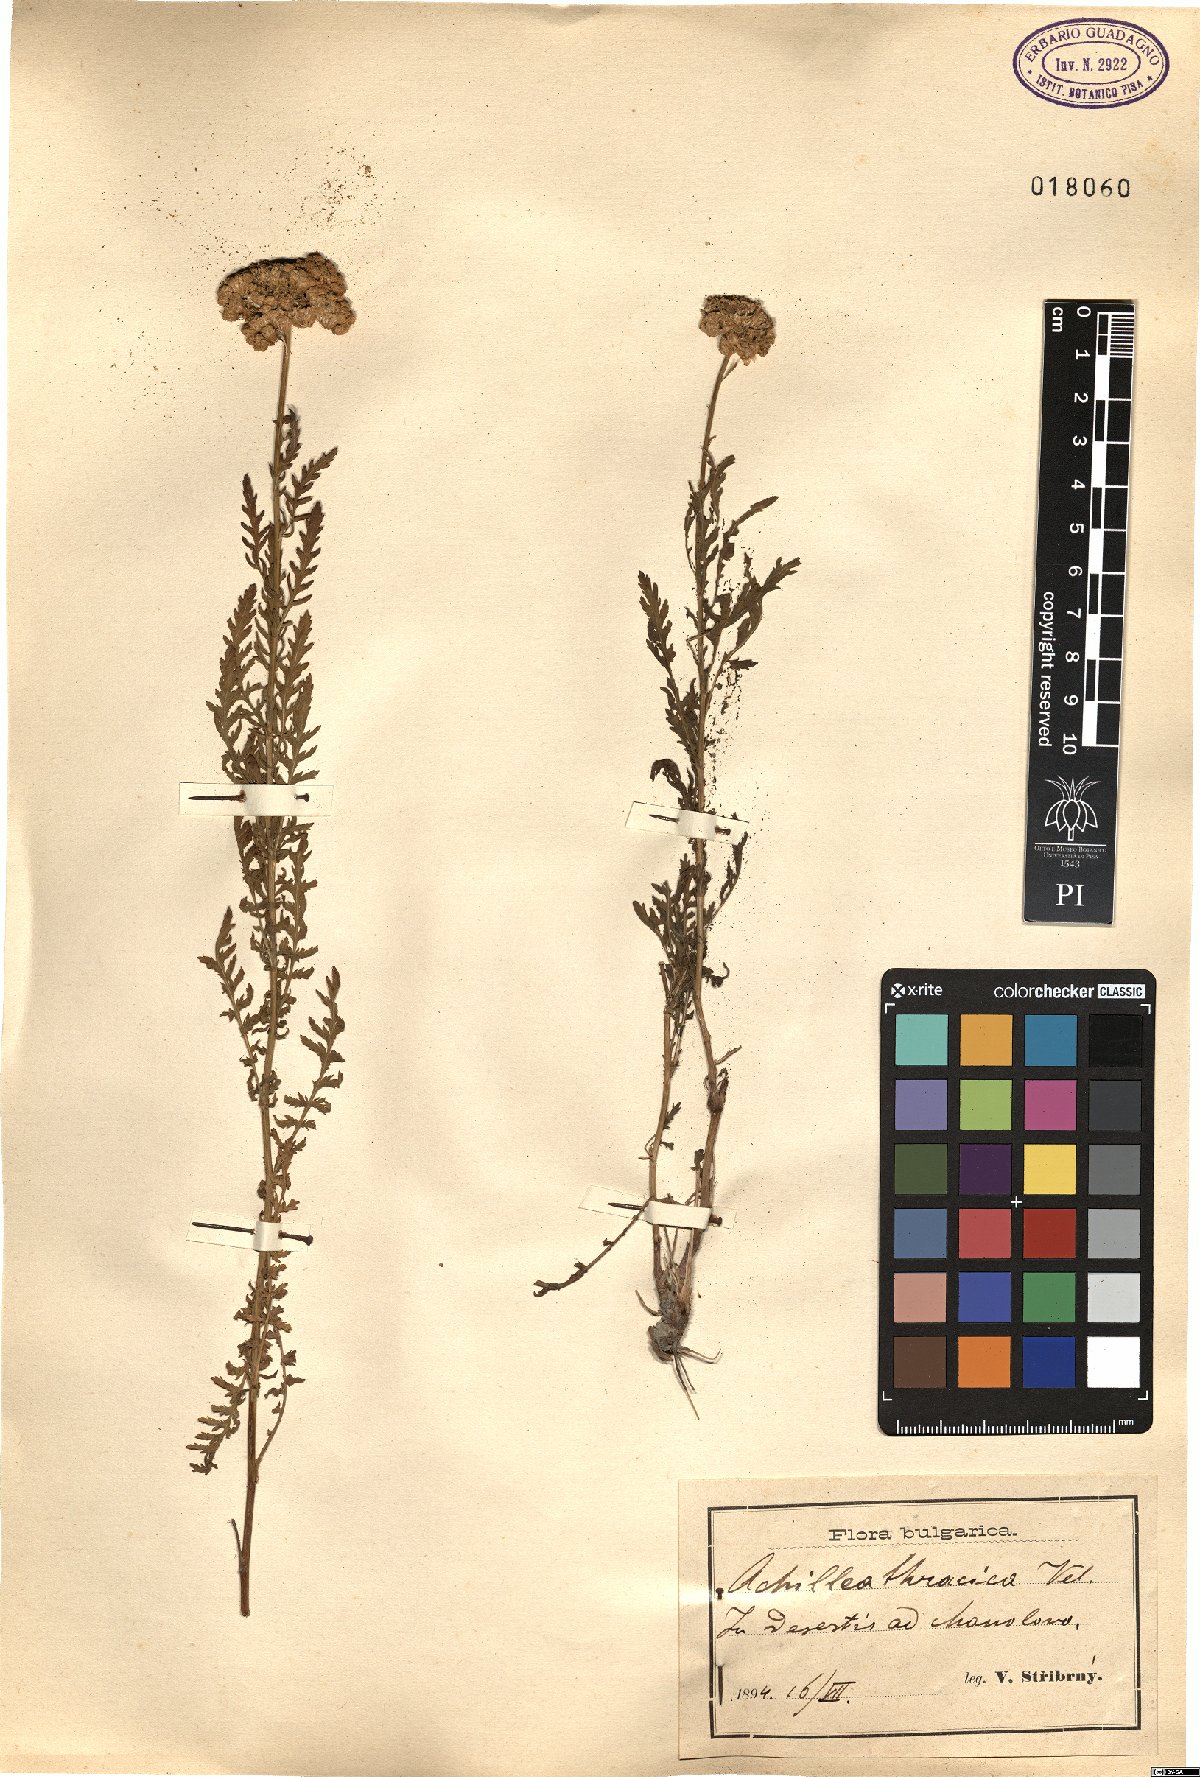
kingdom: Plantae
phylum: Tracheophyta
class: Magnoliopsida
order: Asterales
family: Asteraceae
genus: Achillea
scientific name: Achillea thracica
